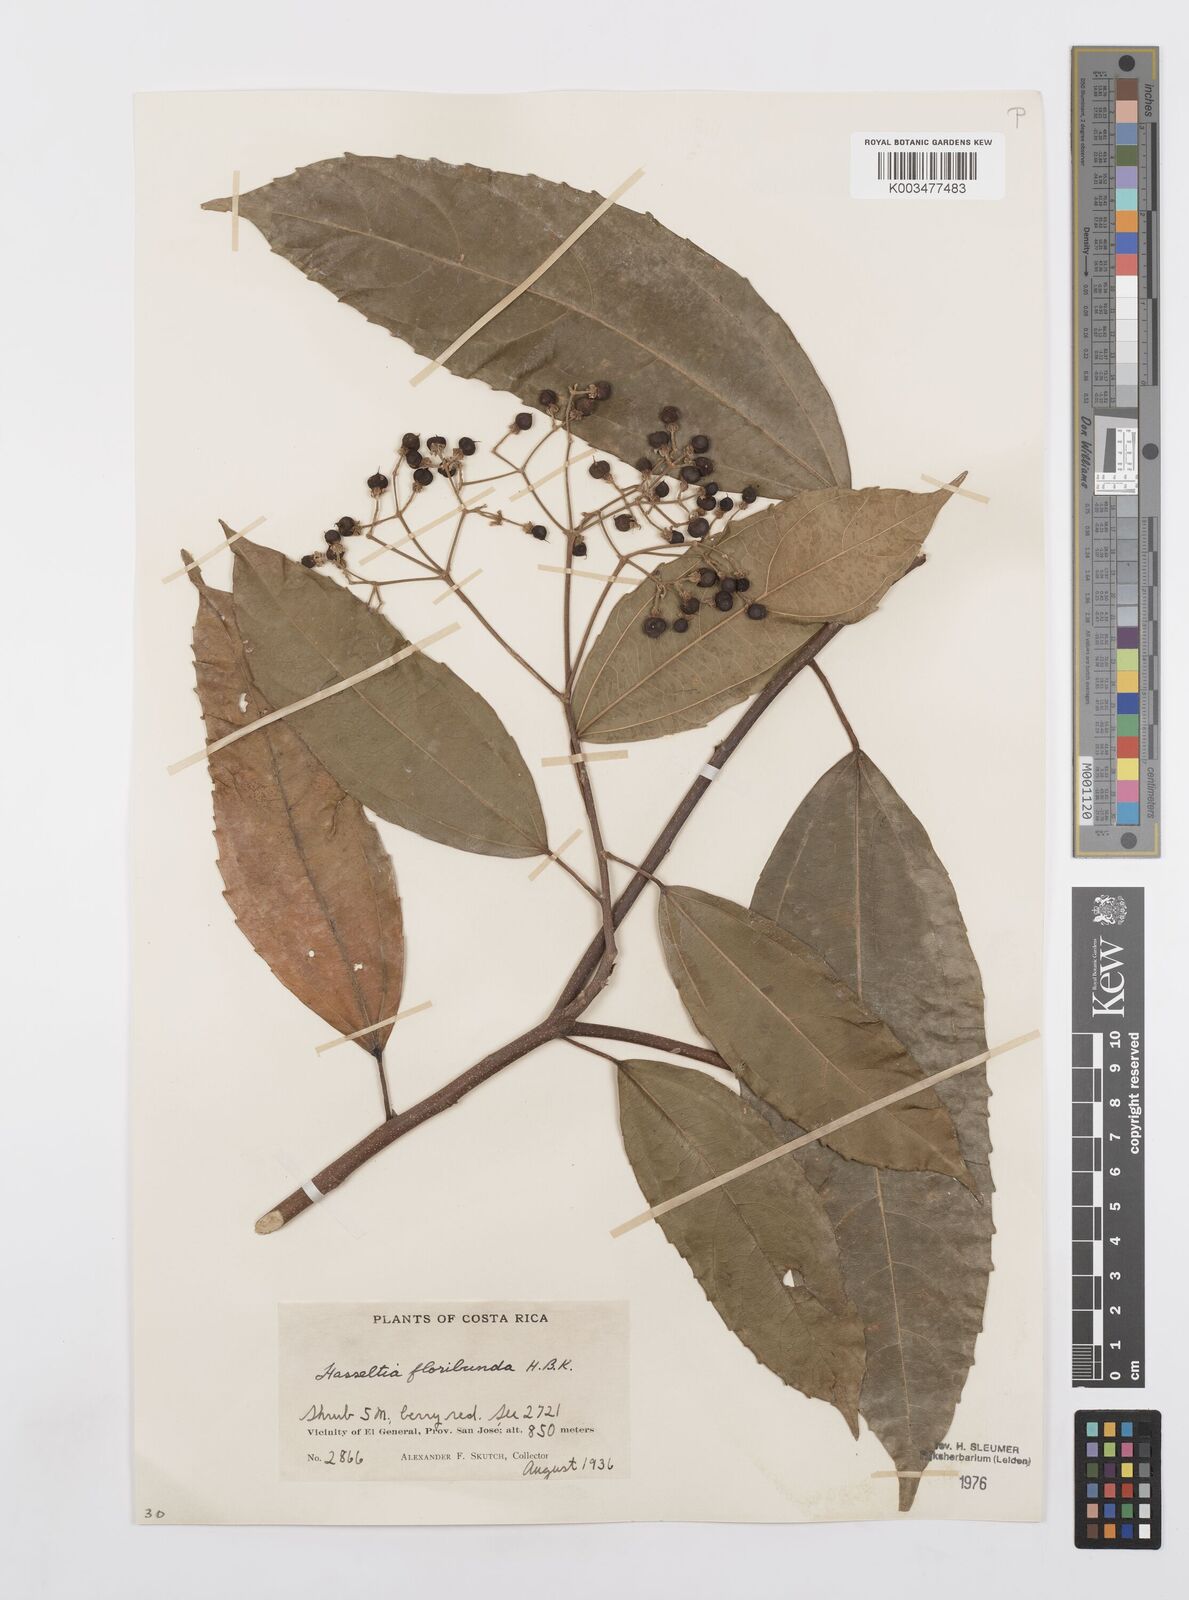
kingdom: Plantae
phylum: Tracheophyta
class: Magnoliopsida
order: Malpighiales
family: Salicaceae
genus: Hasseltia
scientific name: Hasseltia floribunda
